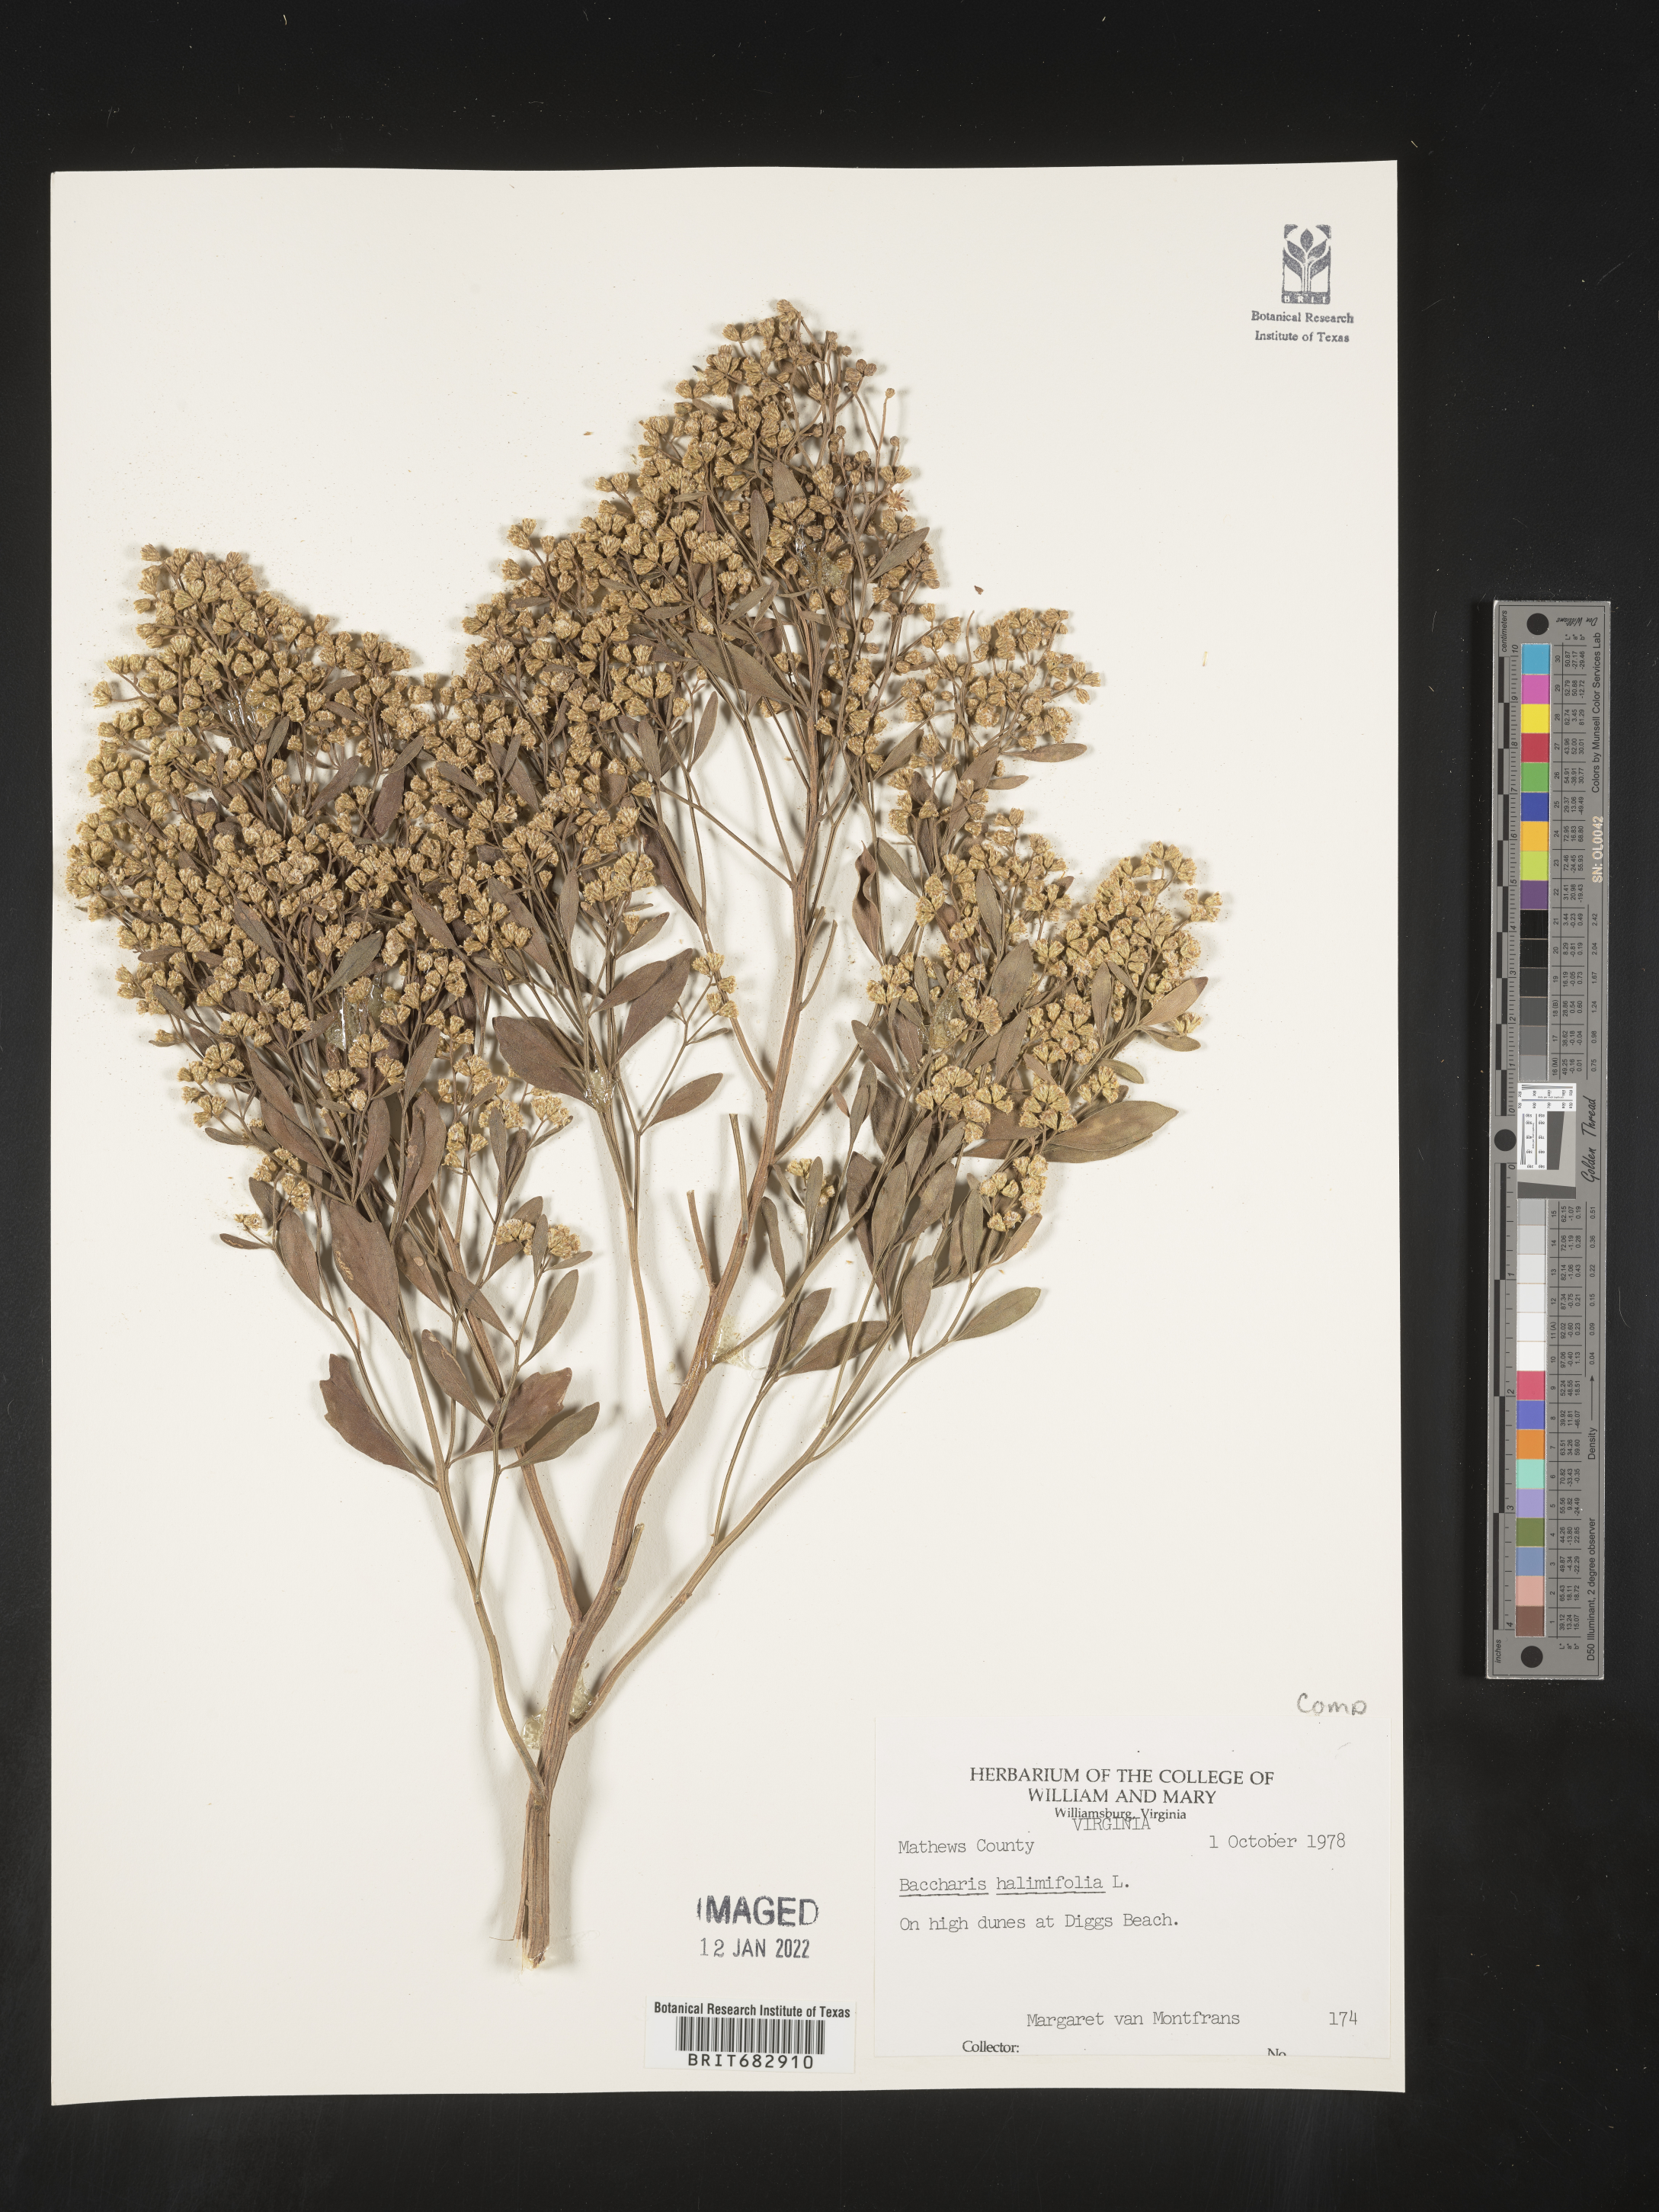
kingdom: Plantae
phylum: Tracheophyta
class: Magnoliopsida
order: Asterales
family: Asteraceae
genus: Nidorella
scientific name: Nidorella ivifolia
